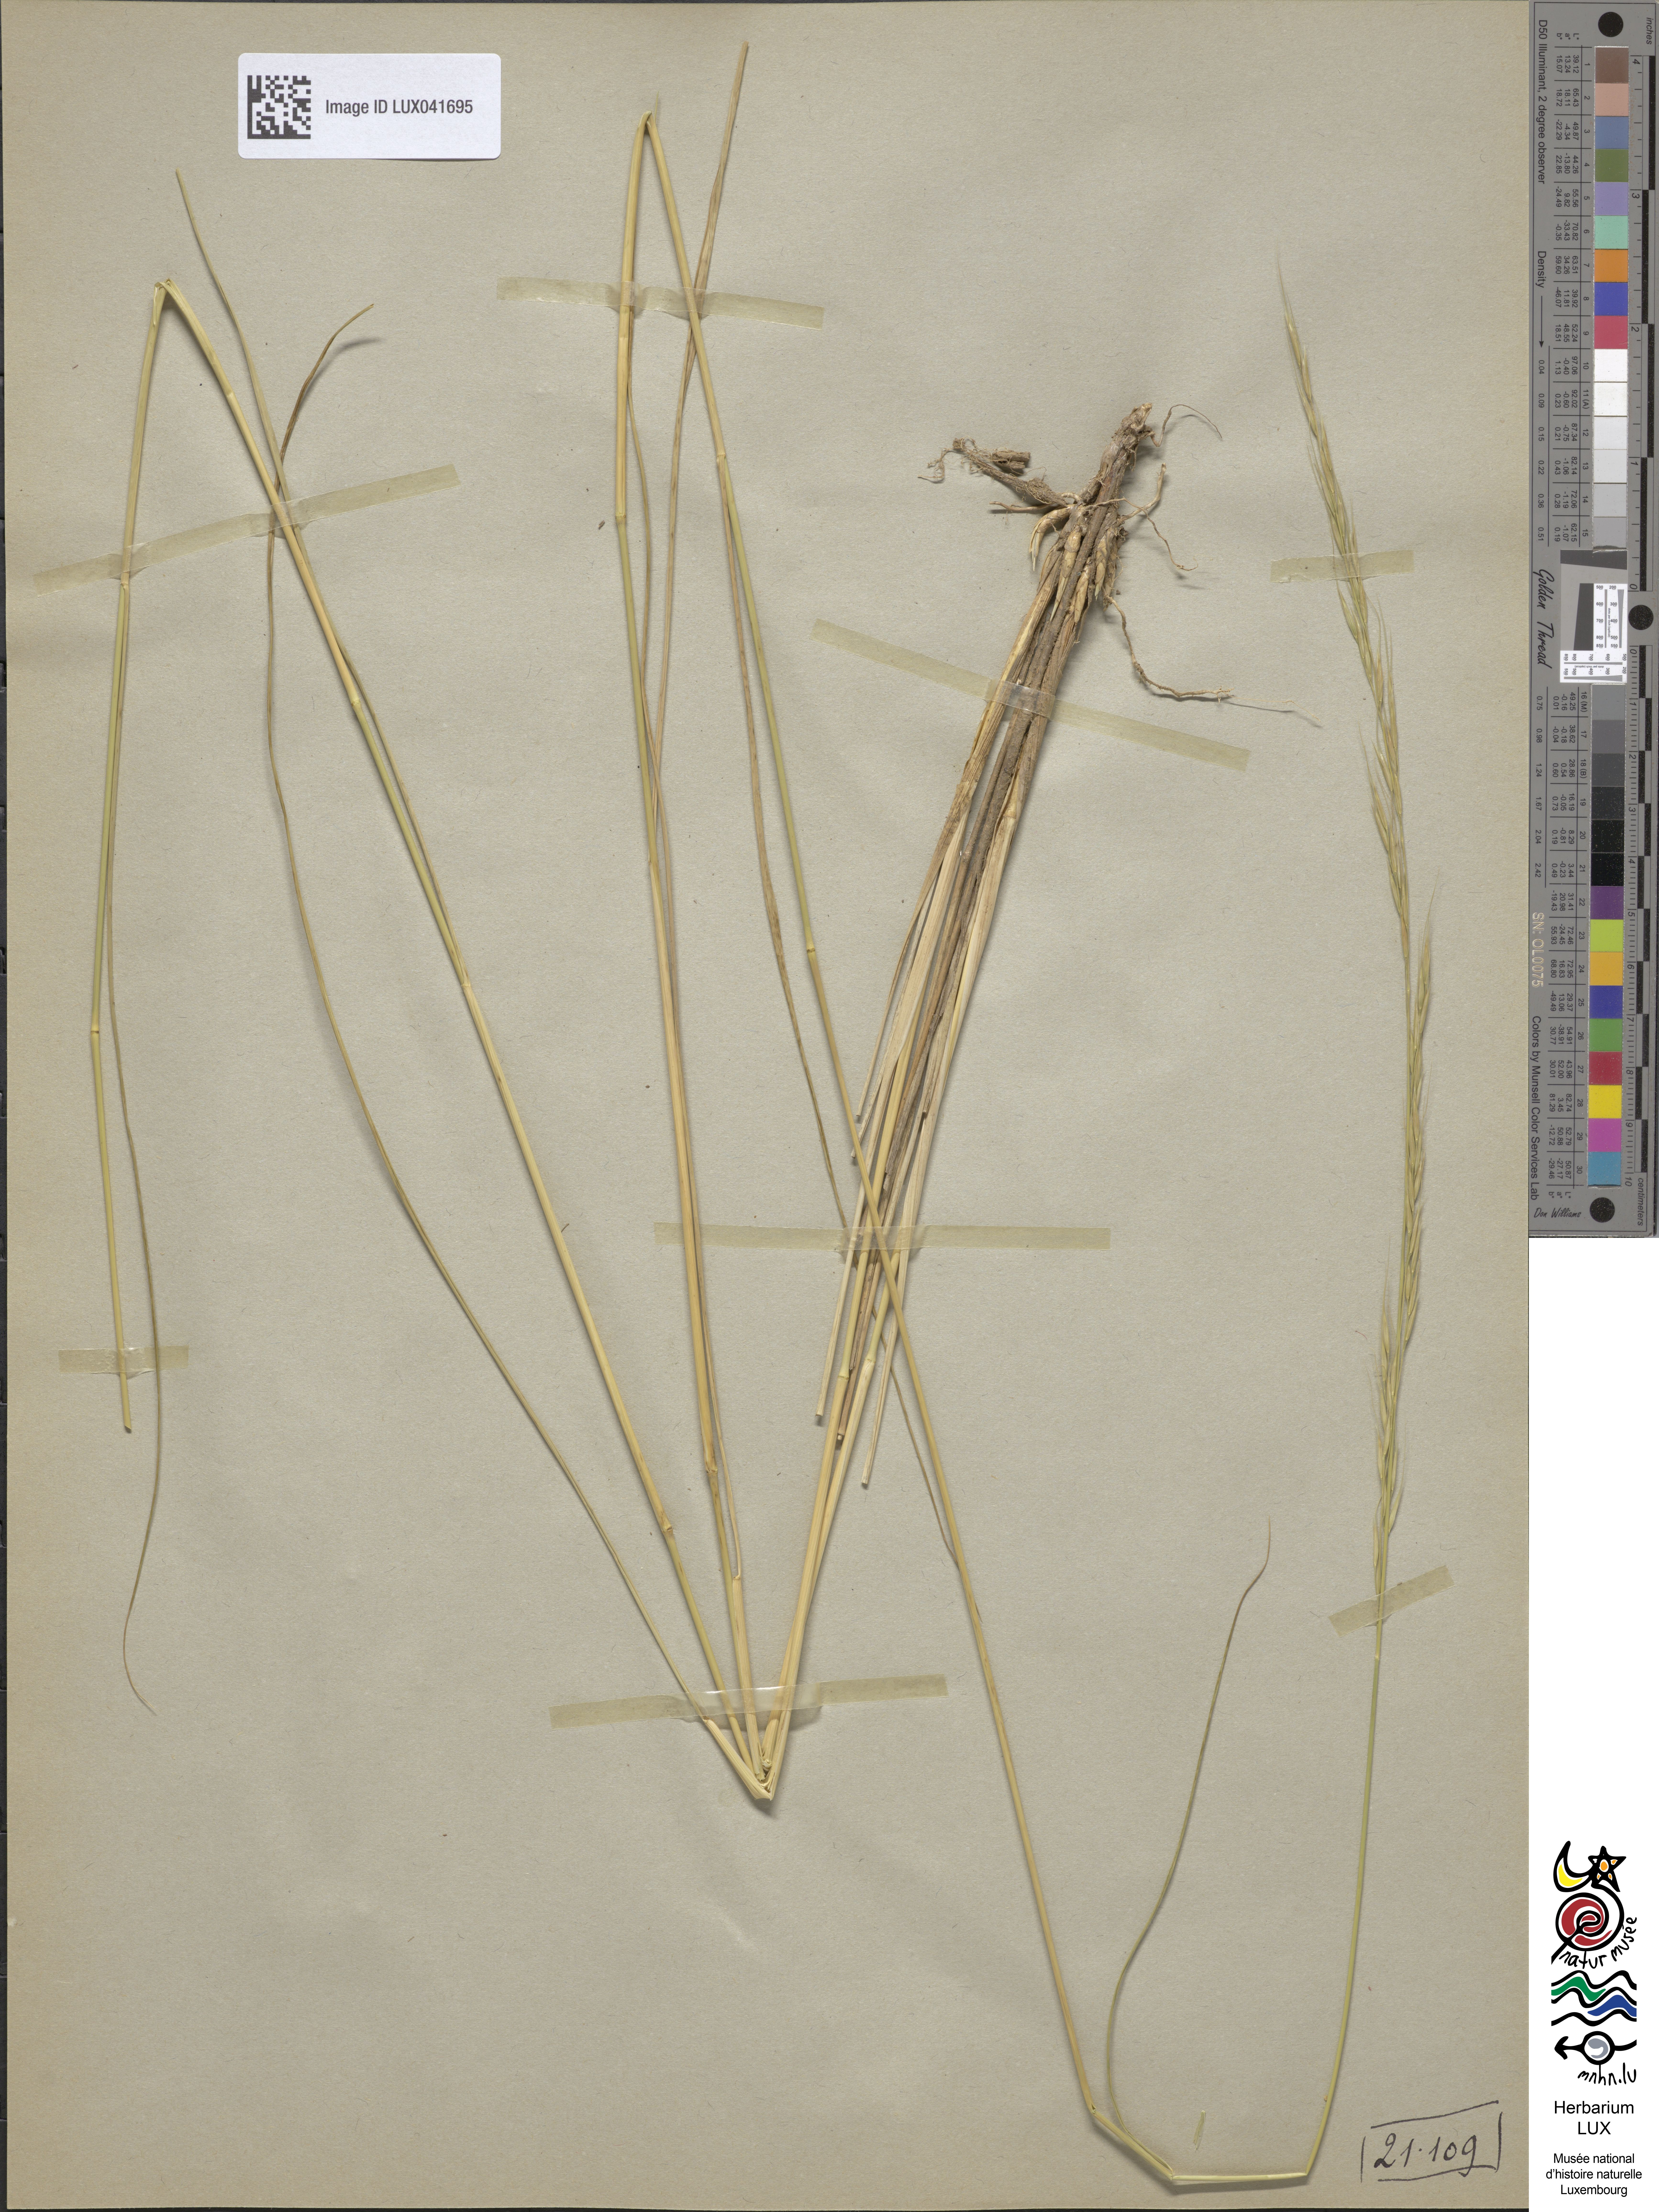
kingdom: Plantae
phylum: Tracheophyta
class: Liliopsida
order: Poales
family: Poaceae
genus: Achnatherum
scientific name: Achnatherum bromoides
